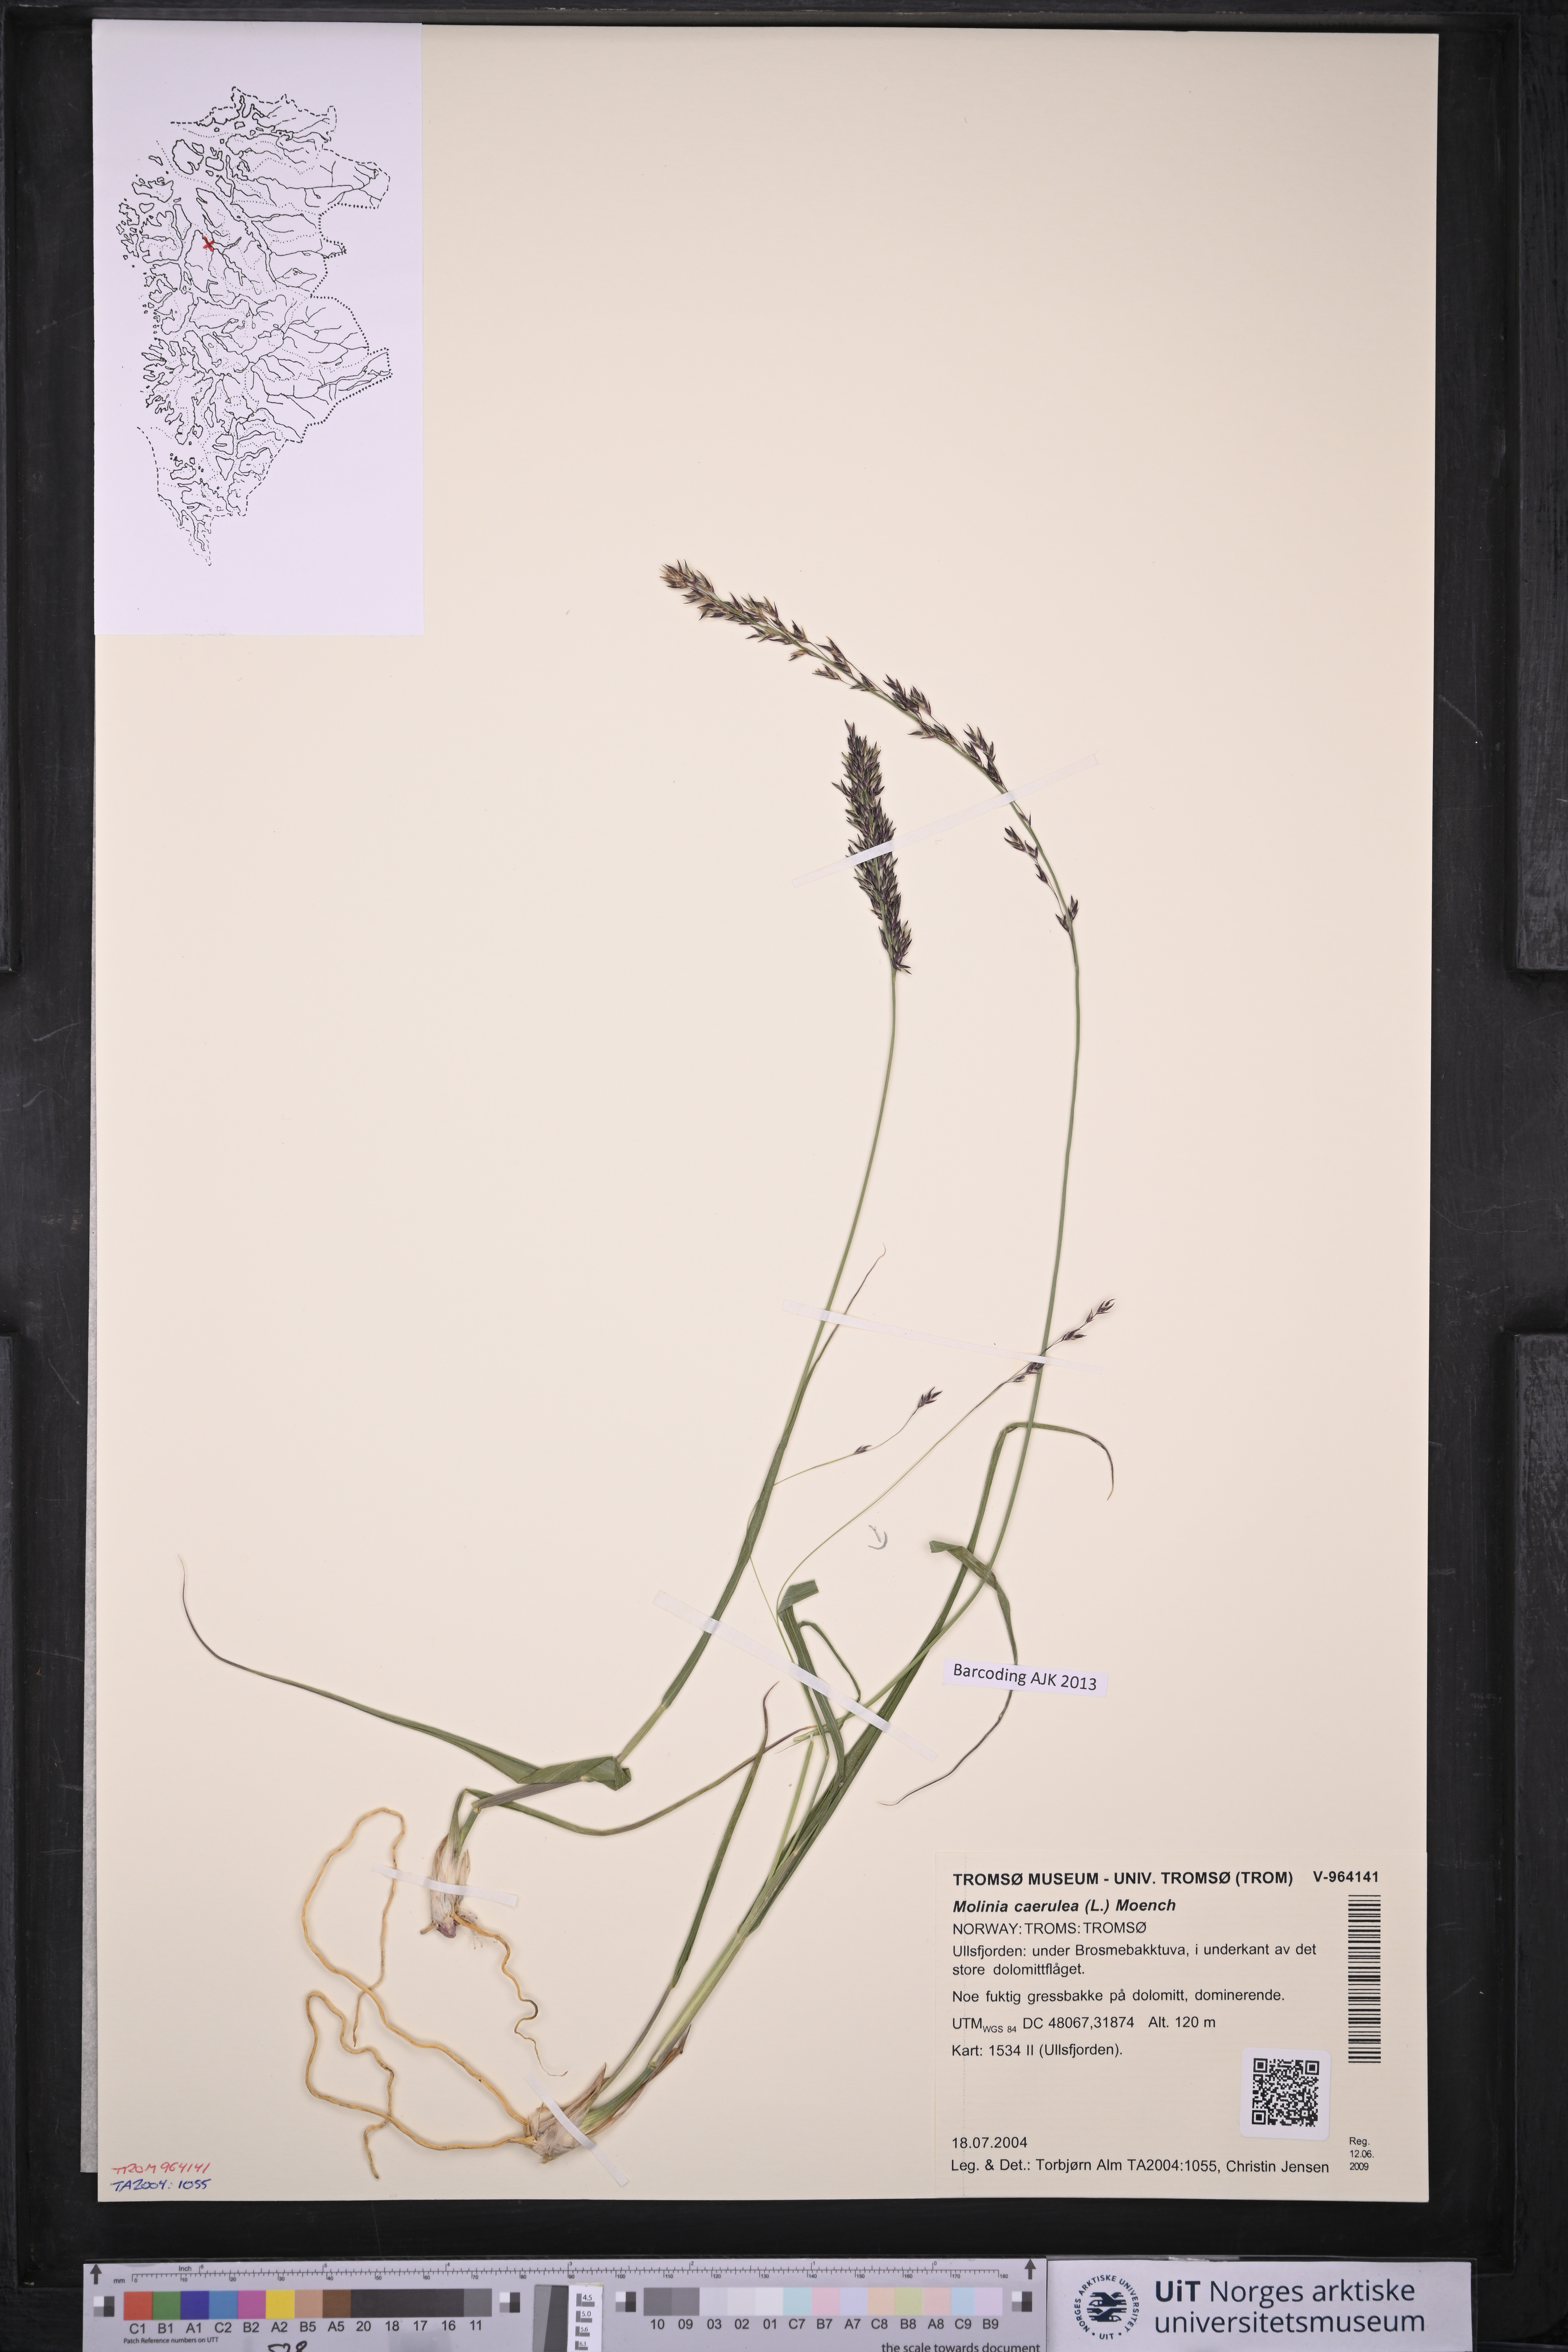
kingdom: Plantae
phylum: Tracheophyta
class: Liliopsida
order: Poales
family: Poaceae
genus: Molinia
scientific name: Molinia caerulea
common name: Purple moor-grass
